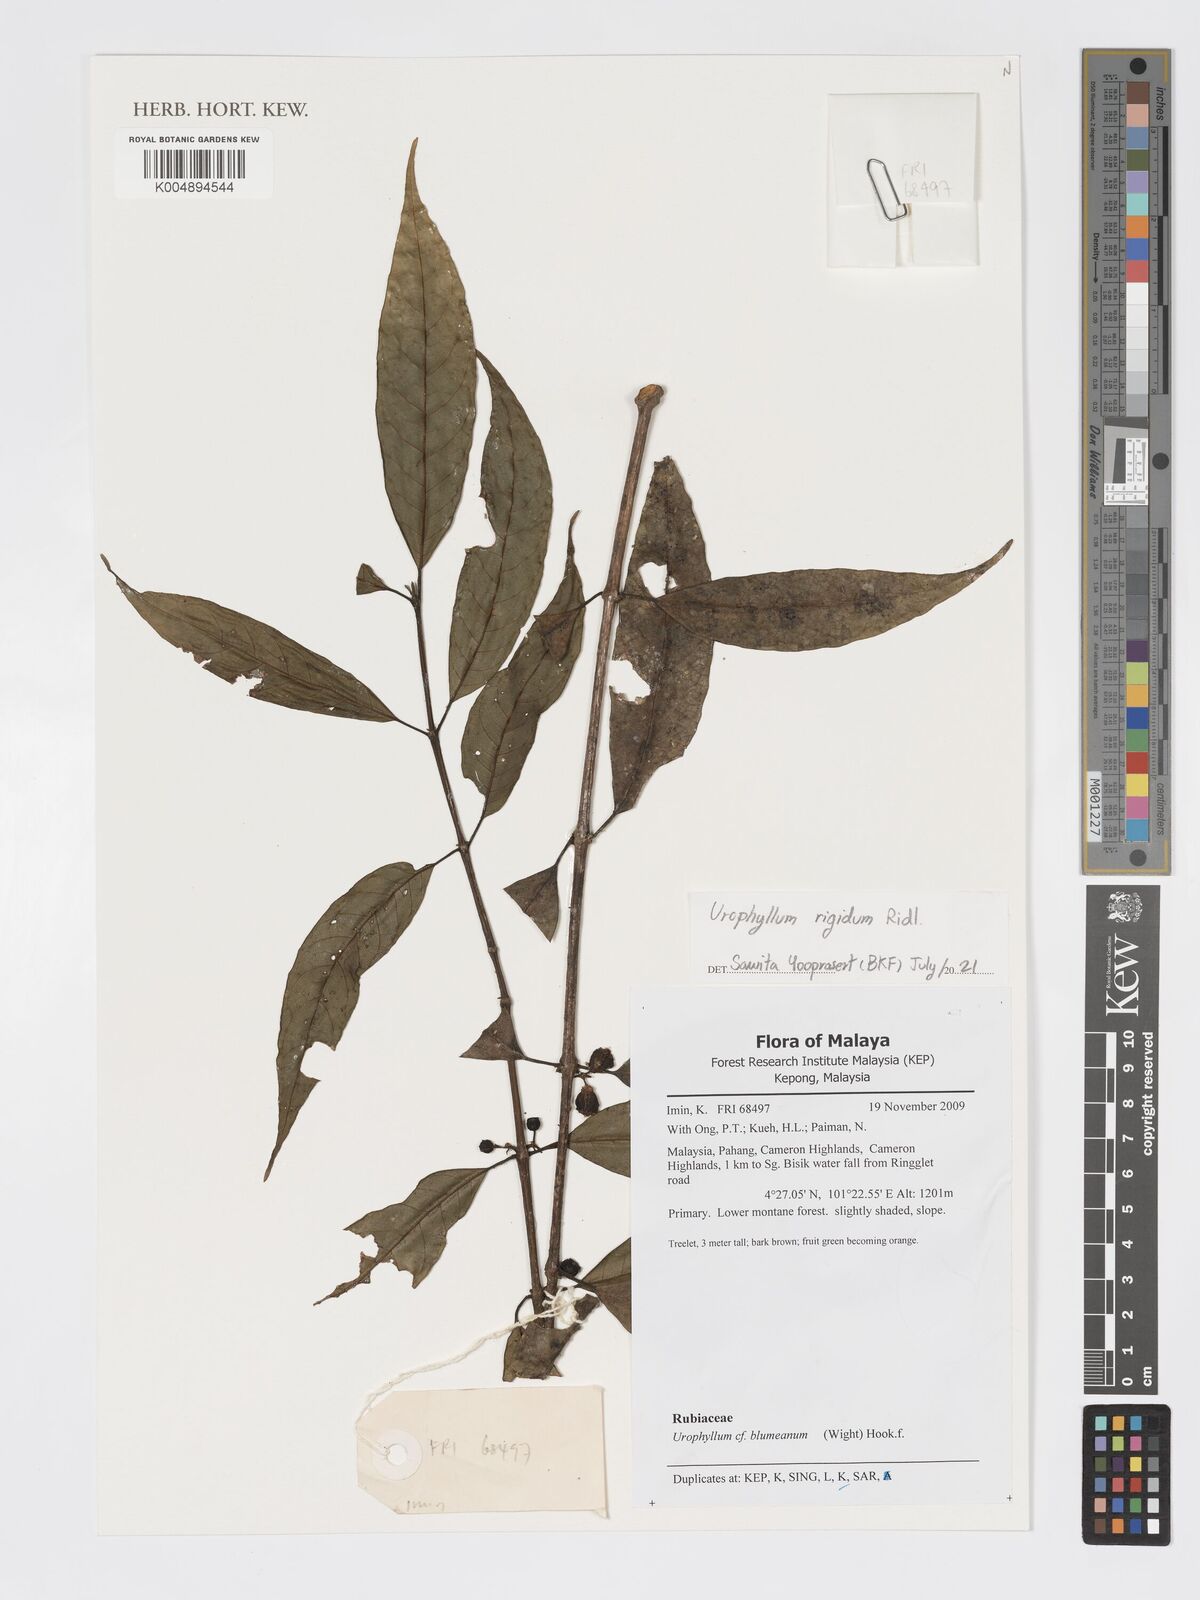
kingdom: Plantae
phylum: Tracheophyta
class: Magnoliopsida
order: Gentianales
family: Rubiaceae
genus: Urophyllum
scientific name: Urophyllum leucophlaeum
